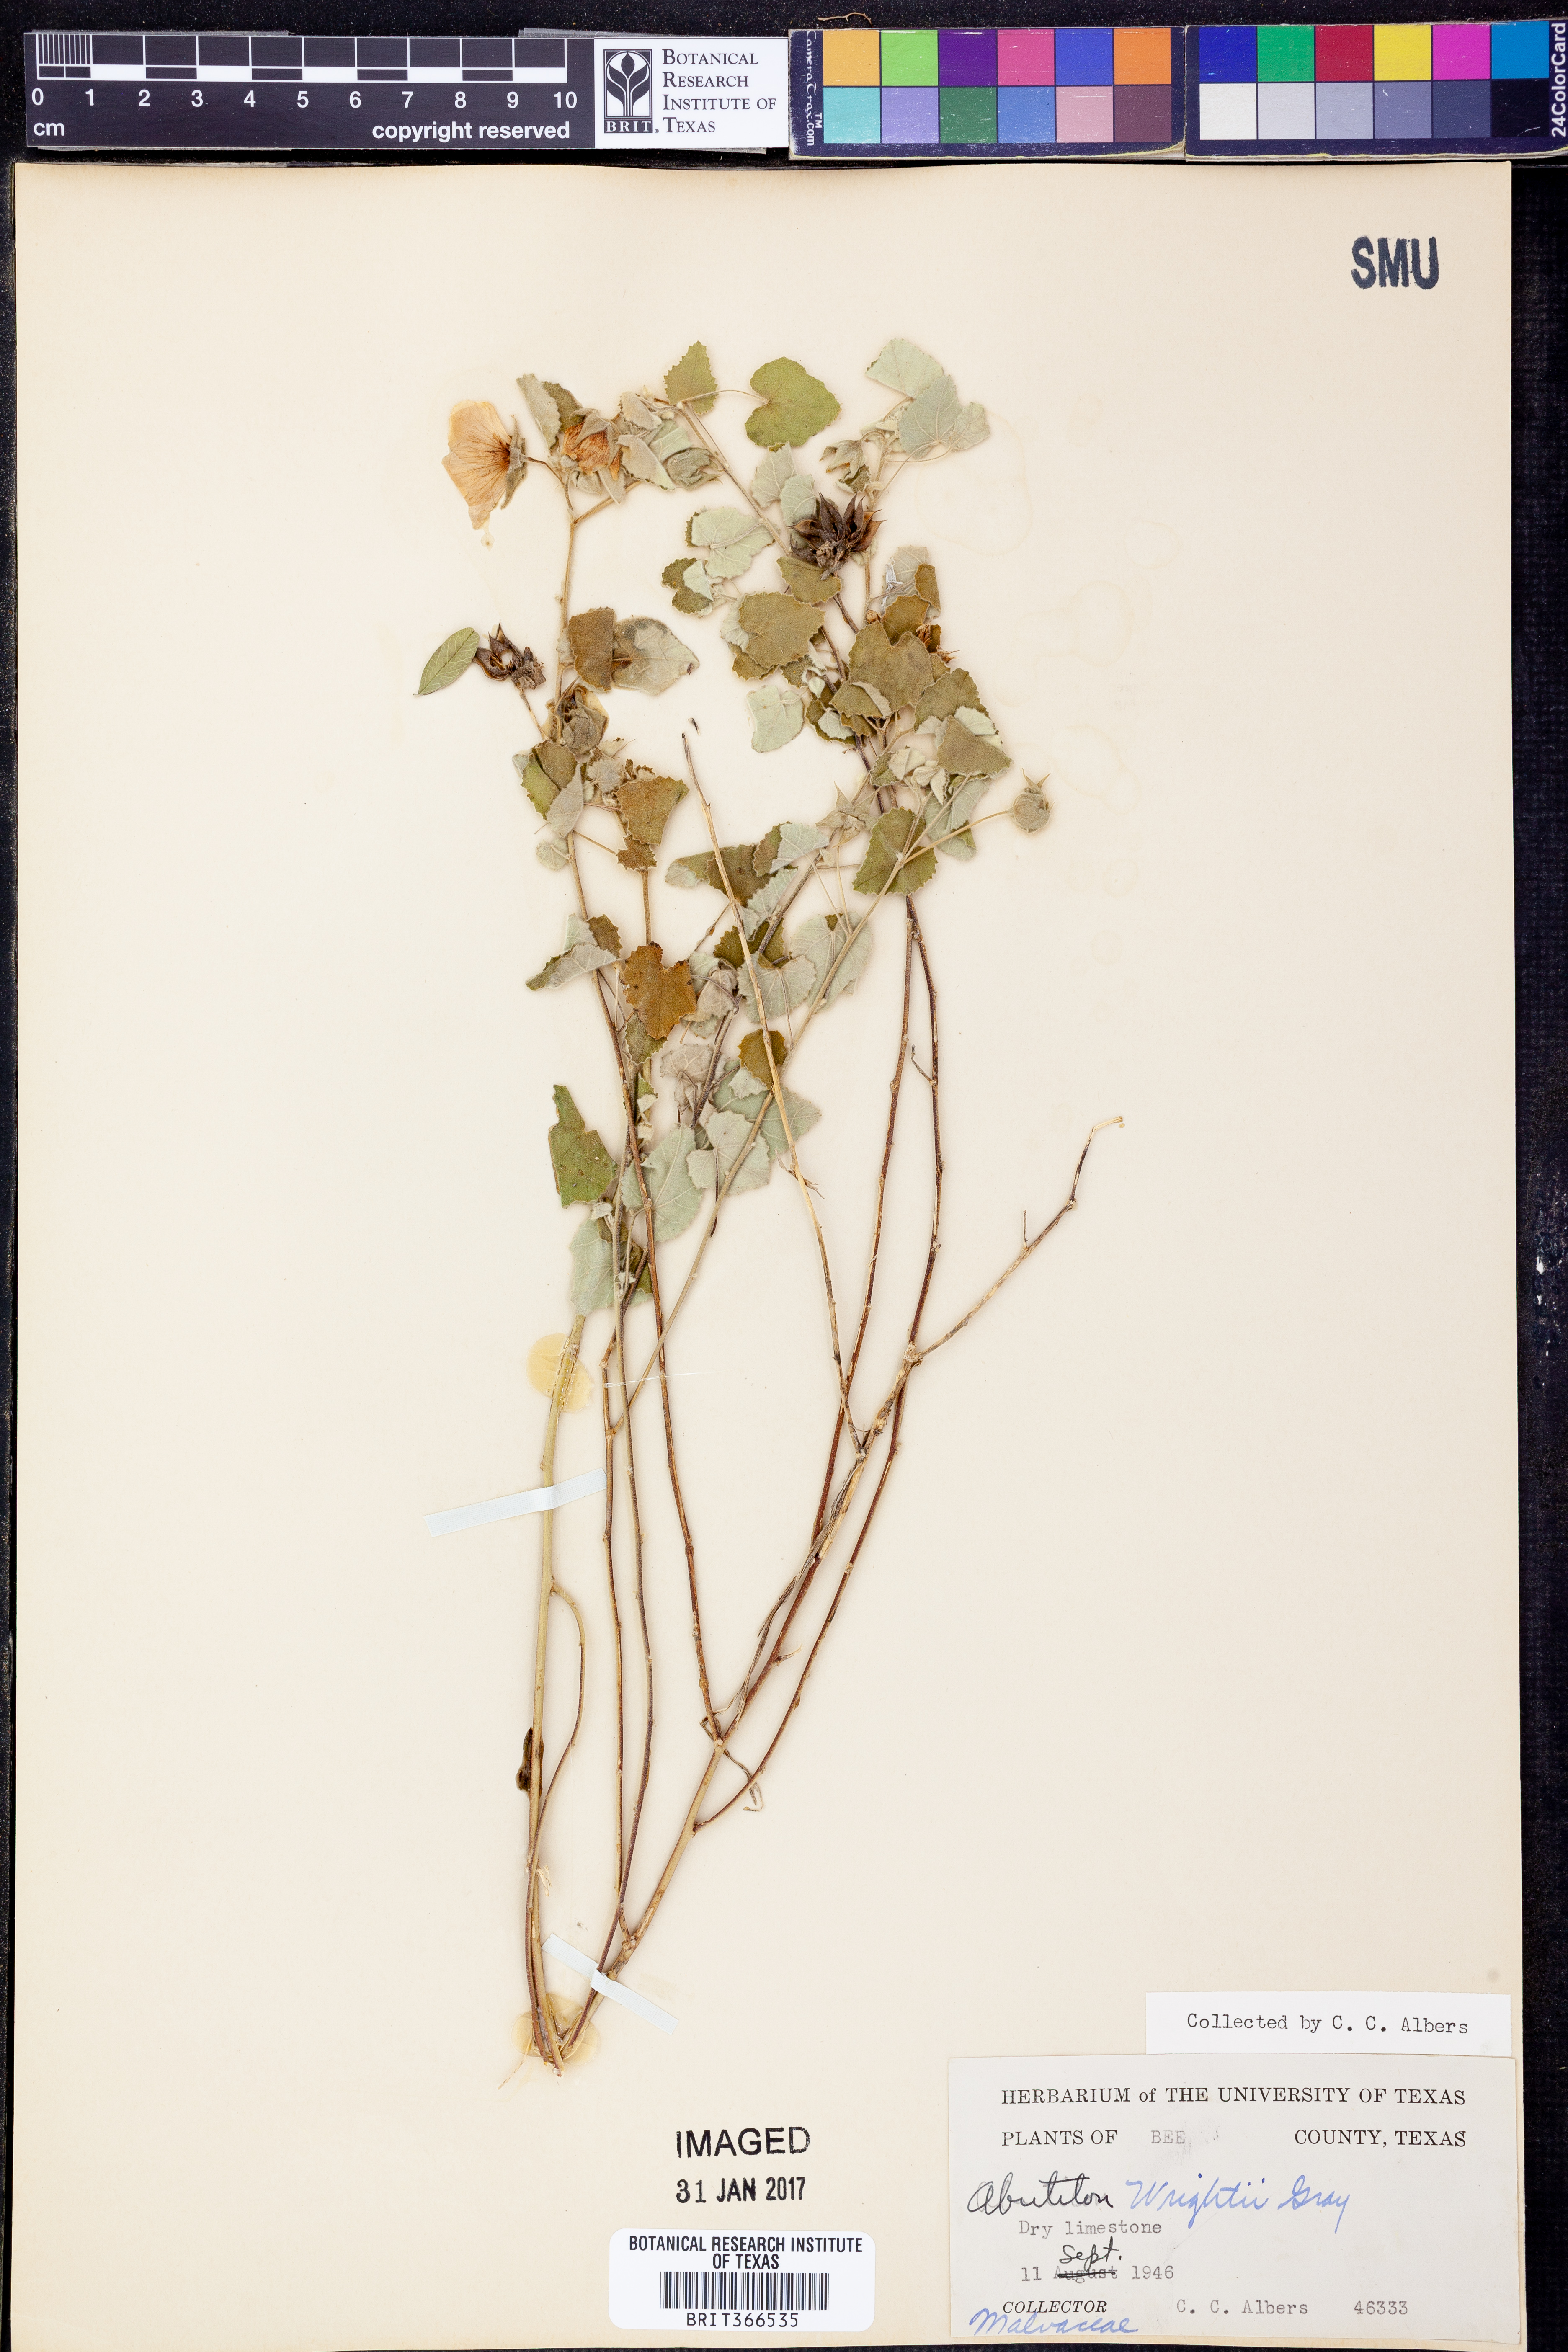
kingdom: Plantae
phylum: Tracheophyta
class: Magnoliopsida
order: Malvales
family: Malvaceae
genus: Abutilon
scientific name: Abutilon wrightii
